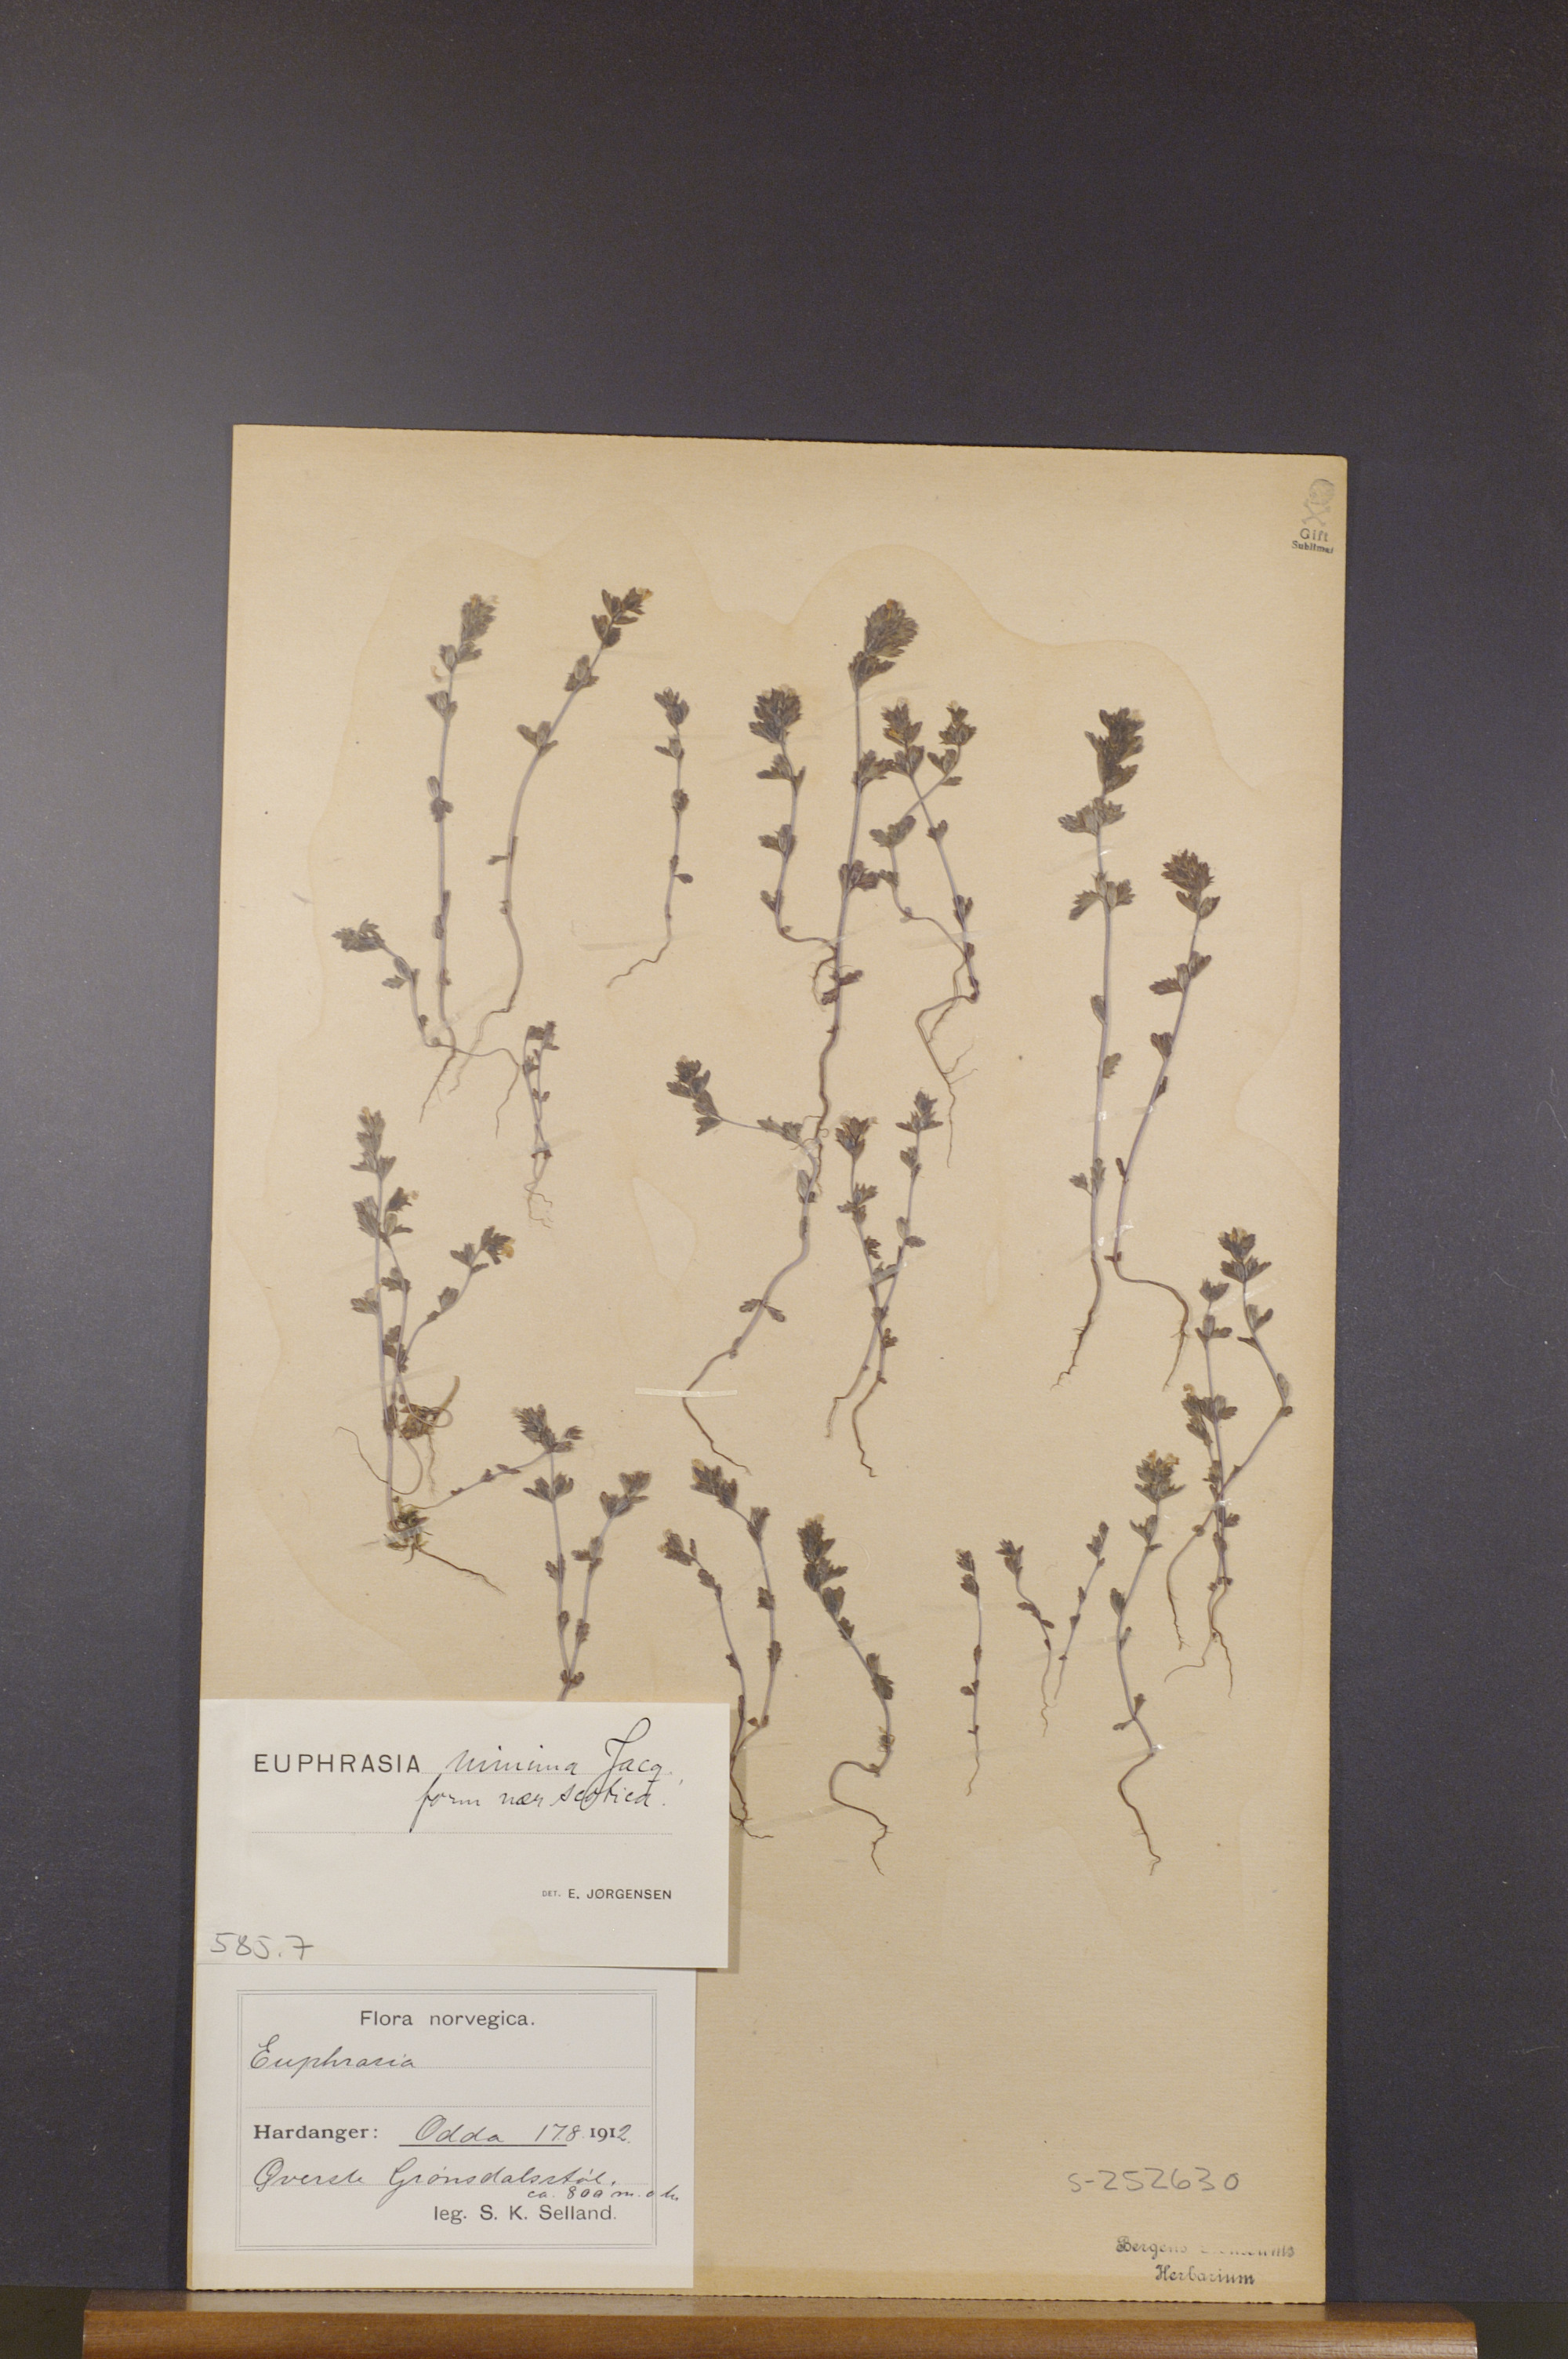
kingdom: Plantae
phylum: Tracheophyta
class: Magnoliopsida
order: Lamiales
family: Orobanchaceae
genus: Euphrasia
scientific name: Euphrasia minima
